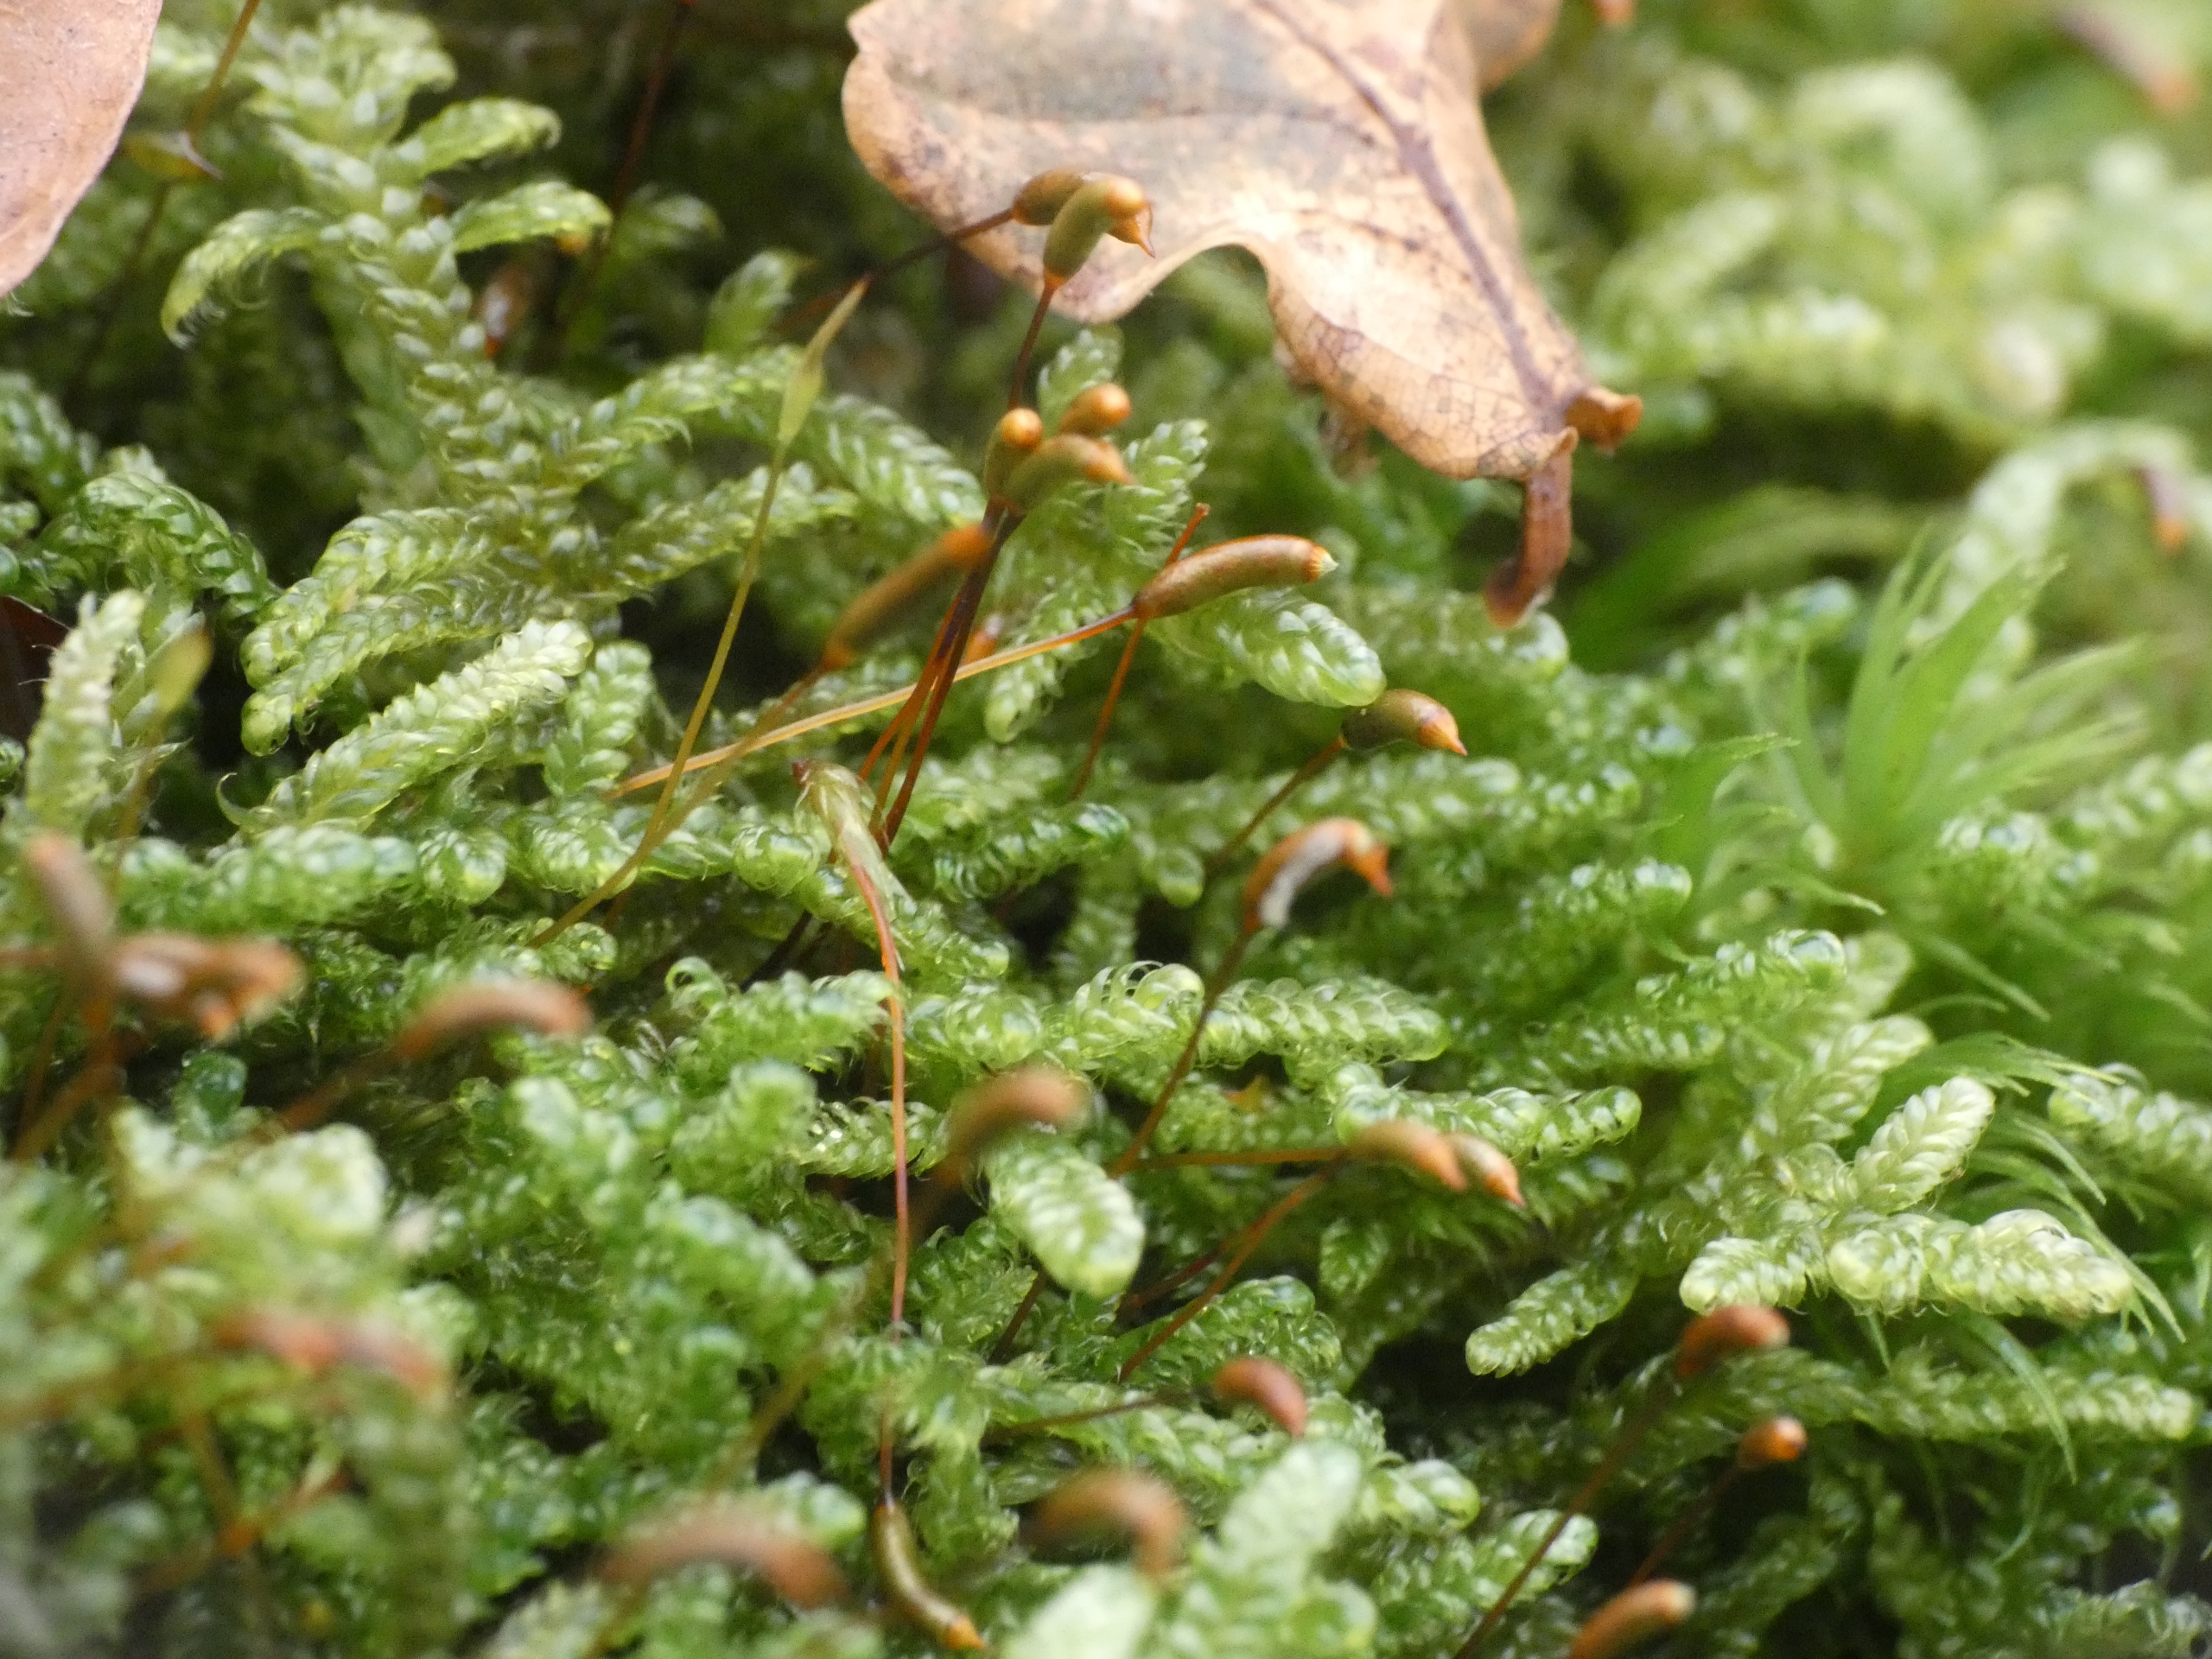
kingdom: Plantae
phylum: Bryophyta
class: Bryopsida
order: Hypnales
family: Hypnaceae
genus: Hypnum
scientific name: Hypnum cupressiforme
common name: Almindelig cypresmos
